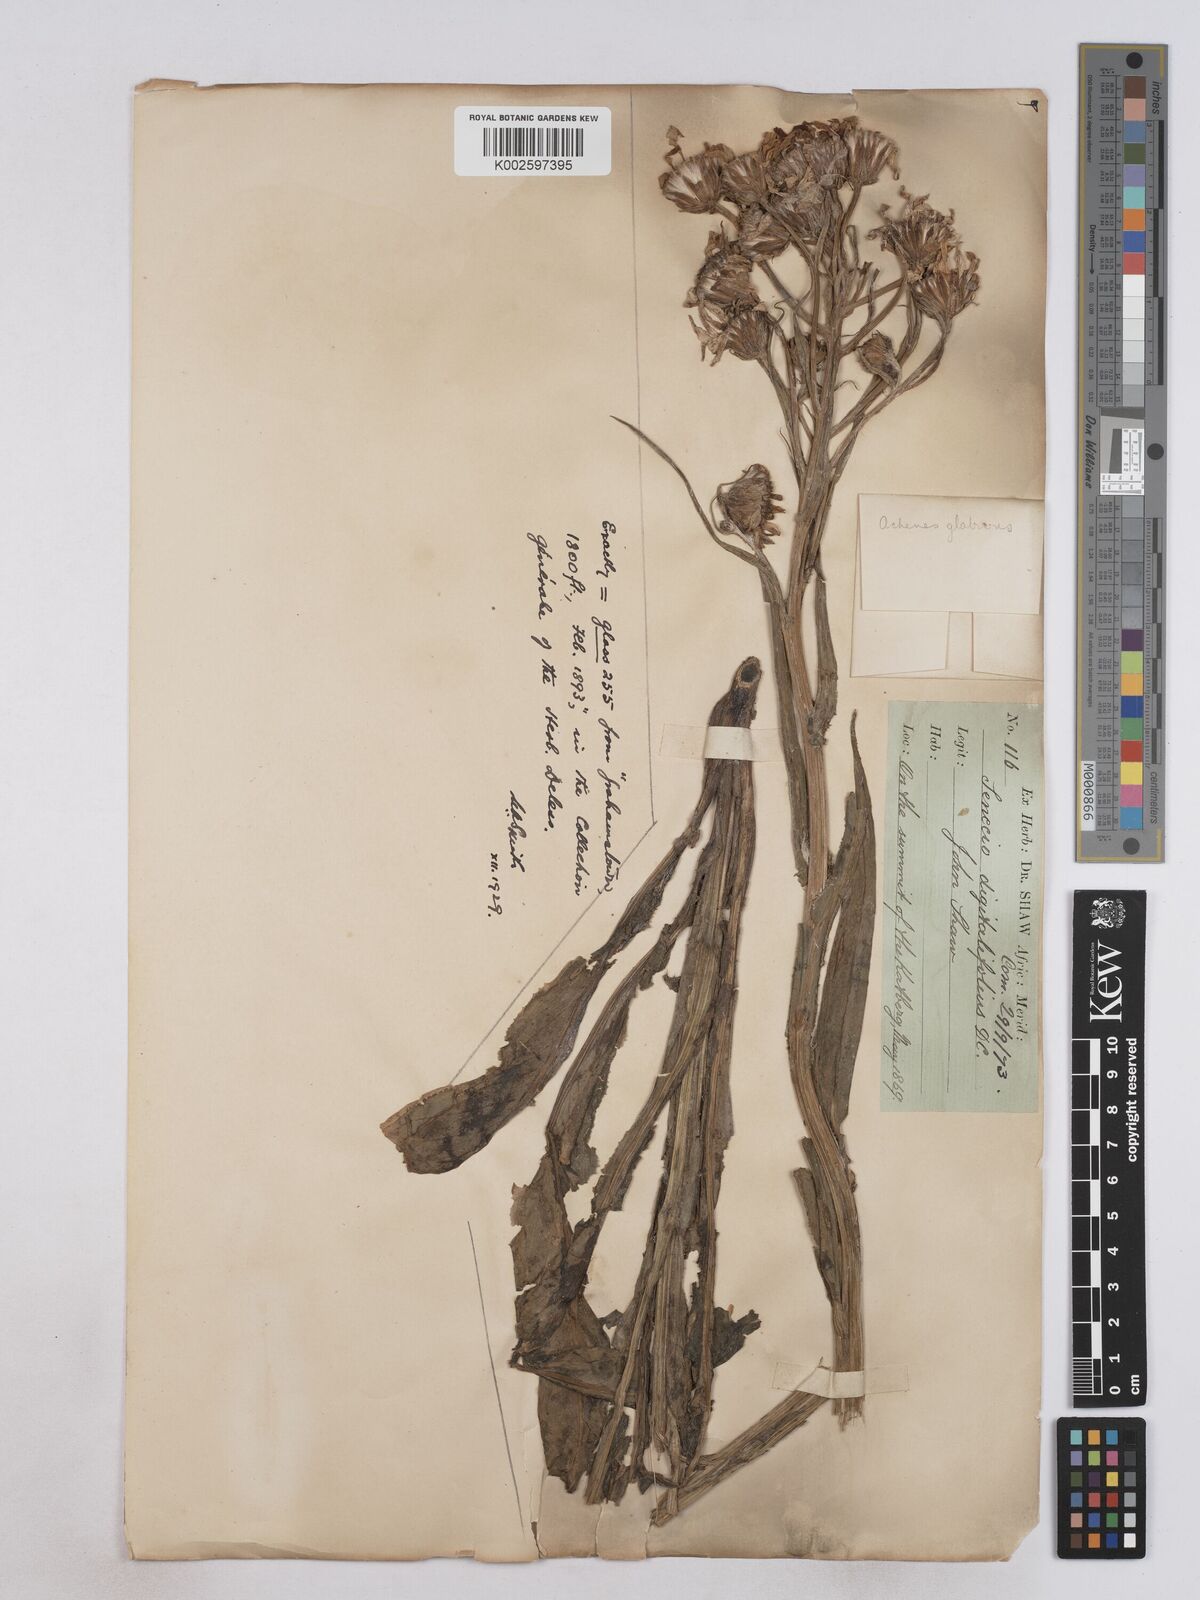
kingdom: Plantae
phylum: Tracheophyta
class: Magnoliopsida
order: Asterales
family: Asteraceae
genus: Senecio
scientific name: Senecio digitalifolius
